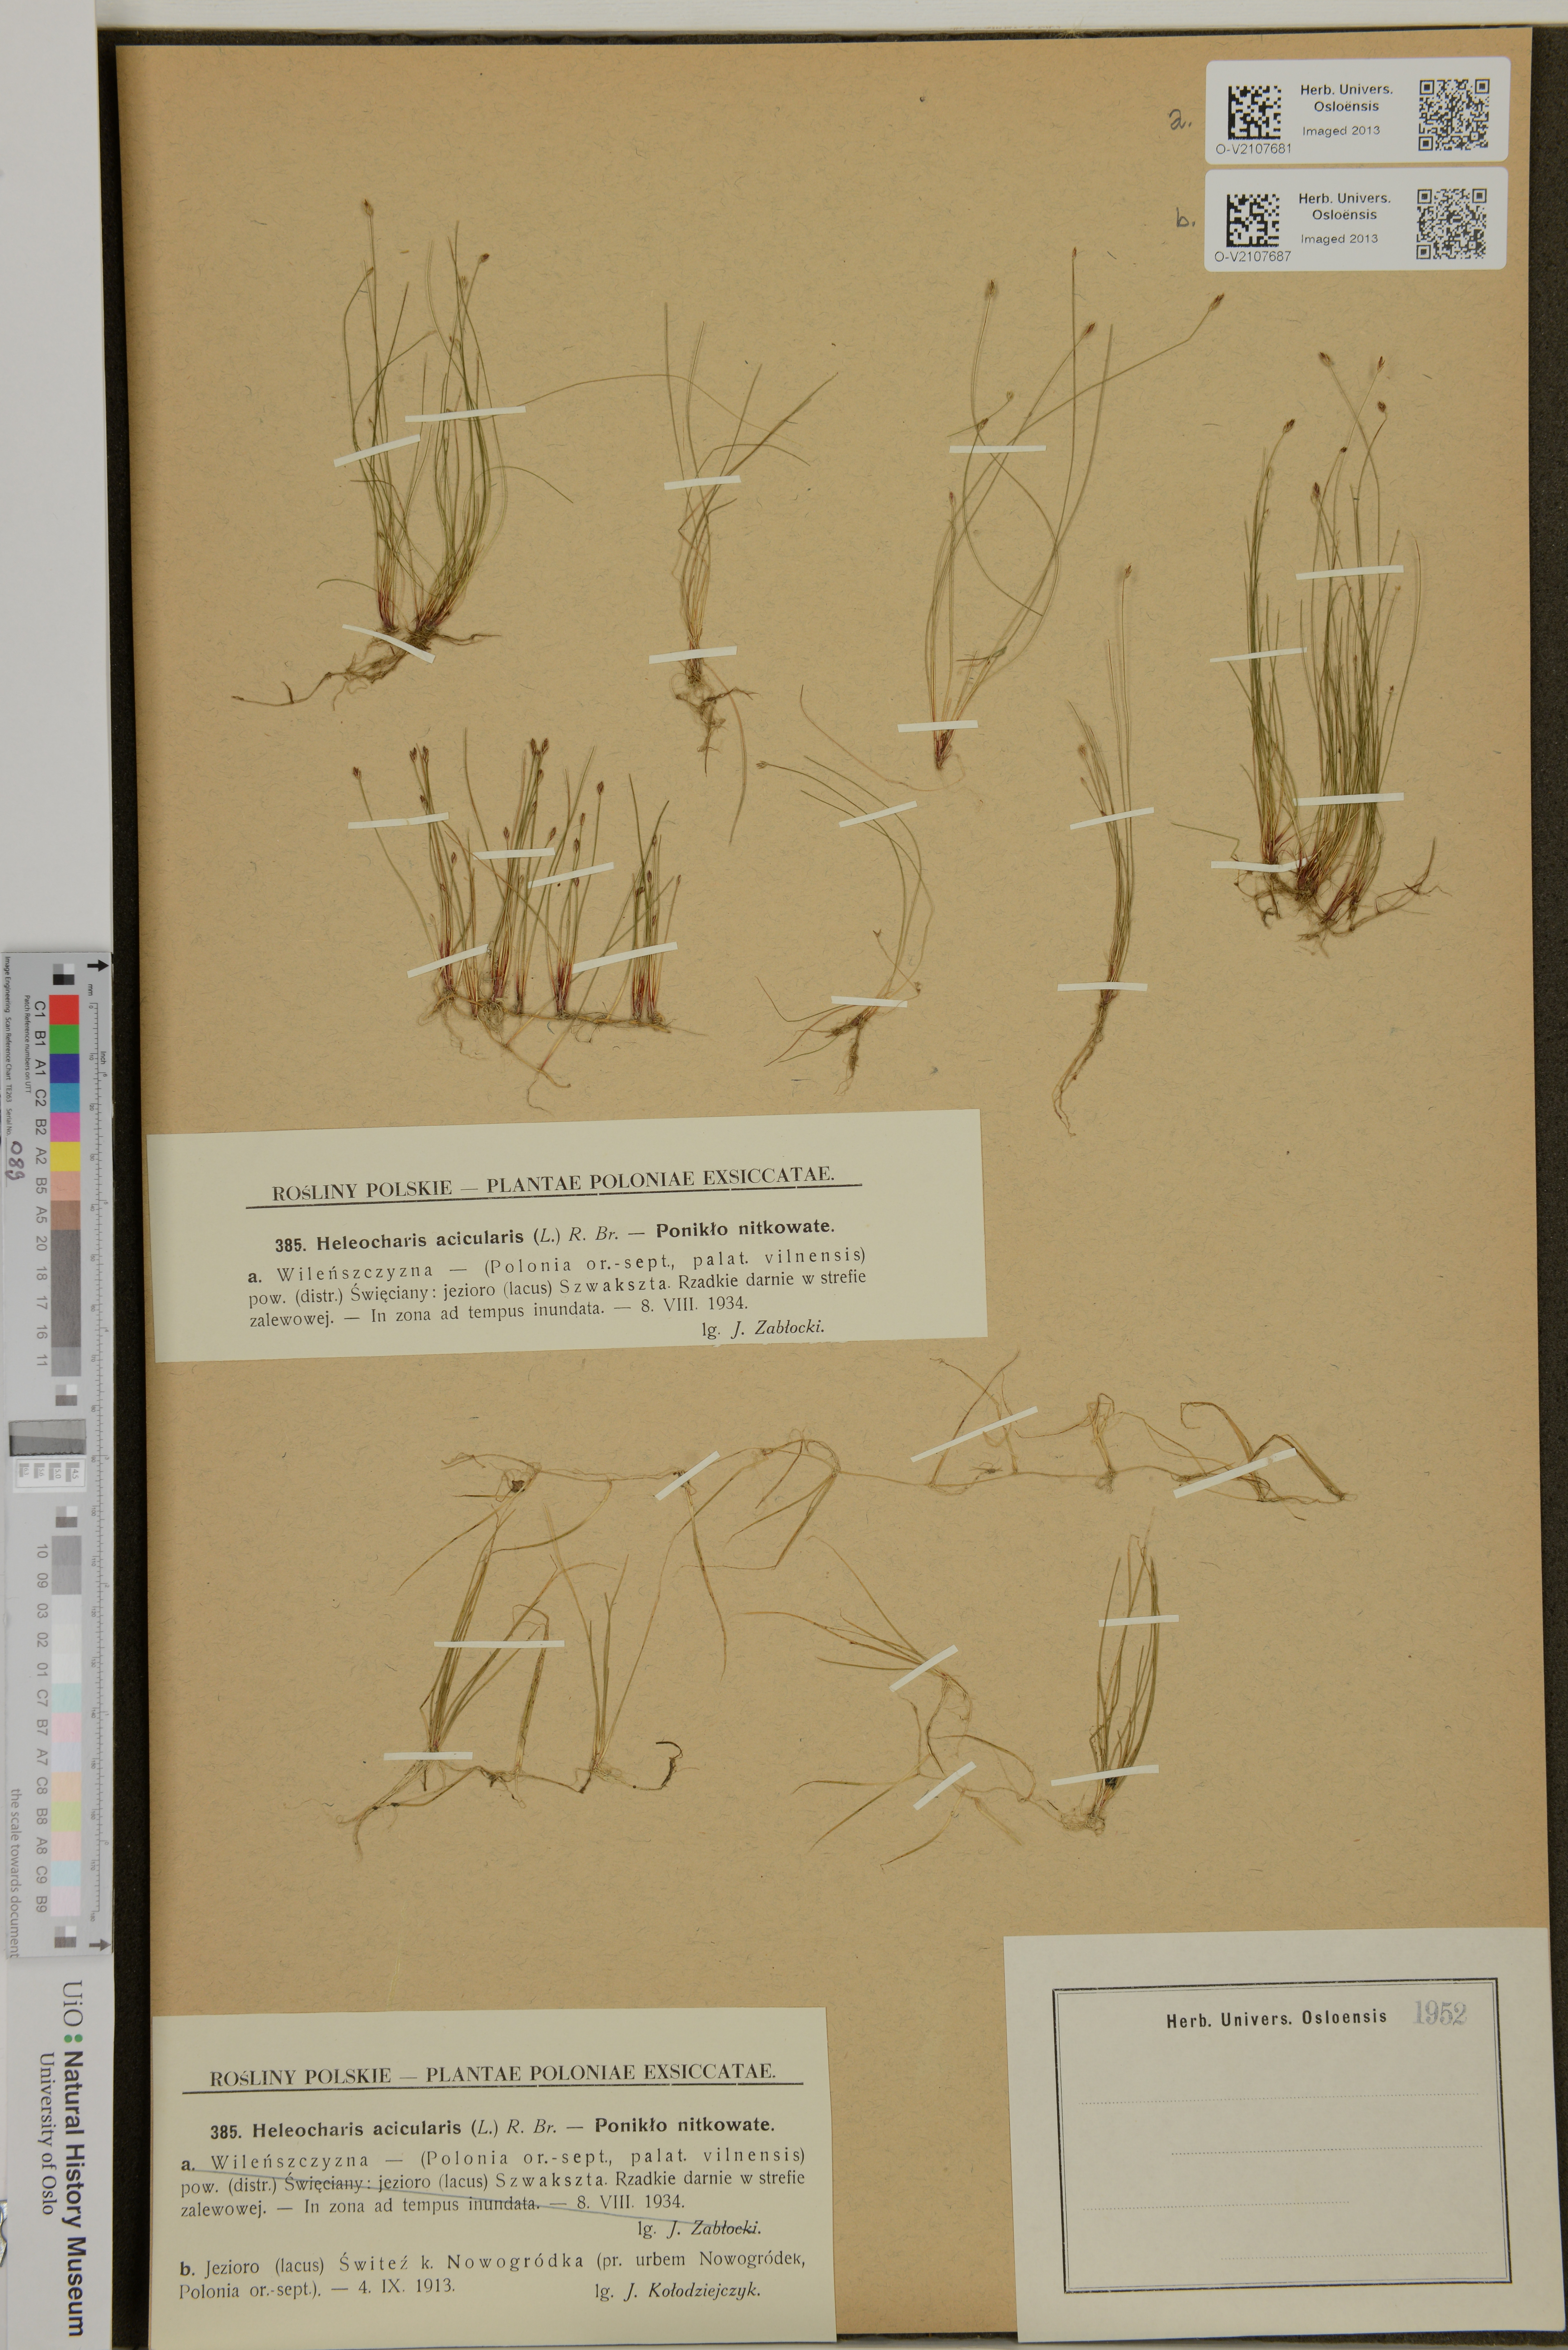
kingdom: Plantae
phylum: Tracheophyta
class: Liliopsida
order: Poales
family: Cyperaceae
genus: Eleocharis
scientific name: Eleocharis acicularis
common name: Needle spike-rush
